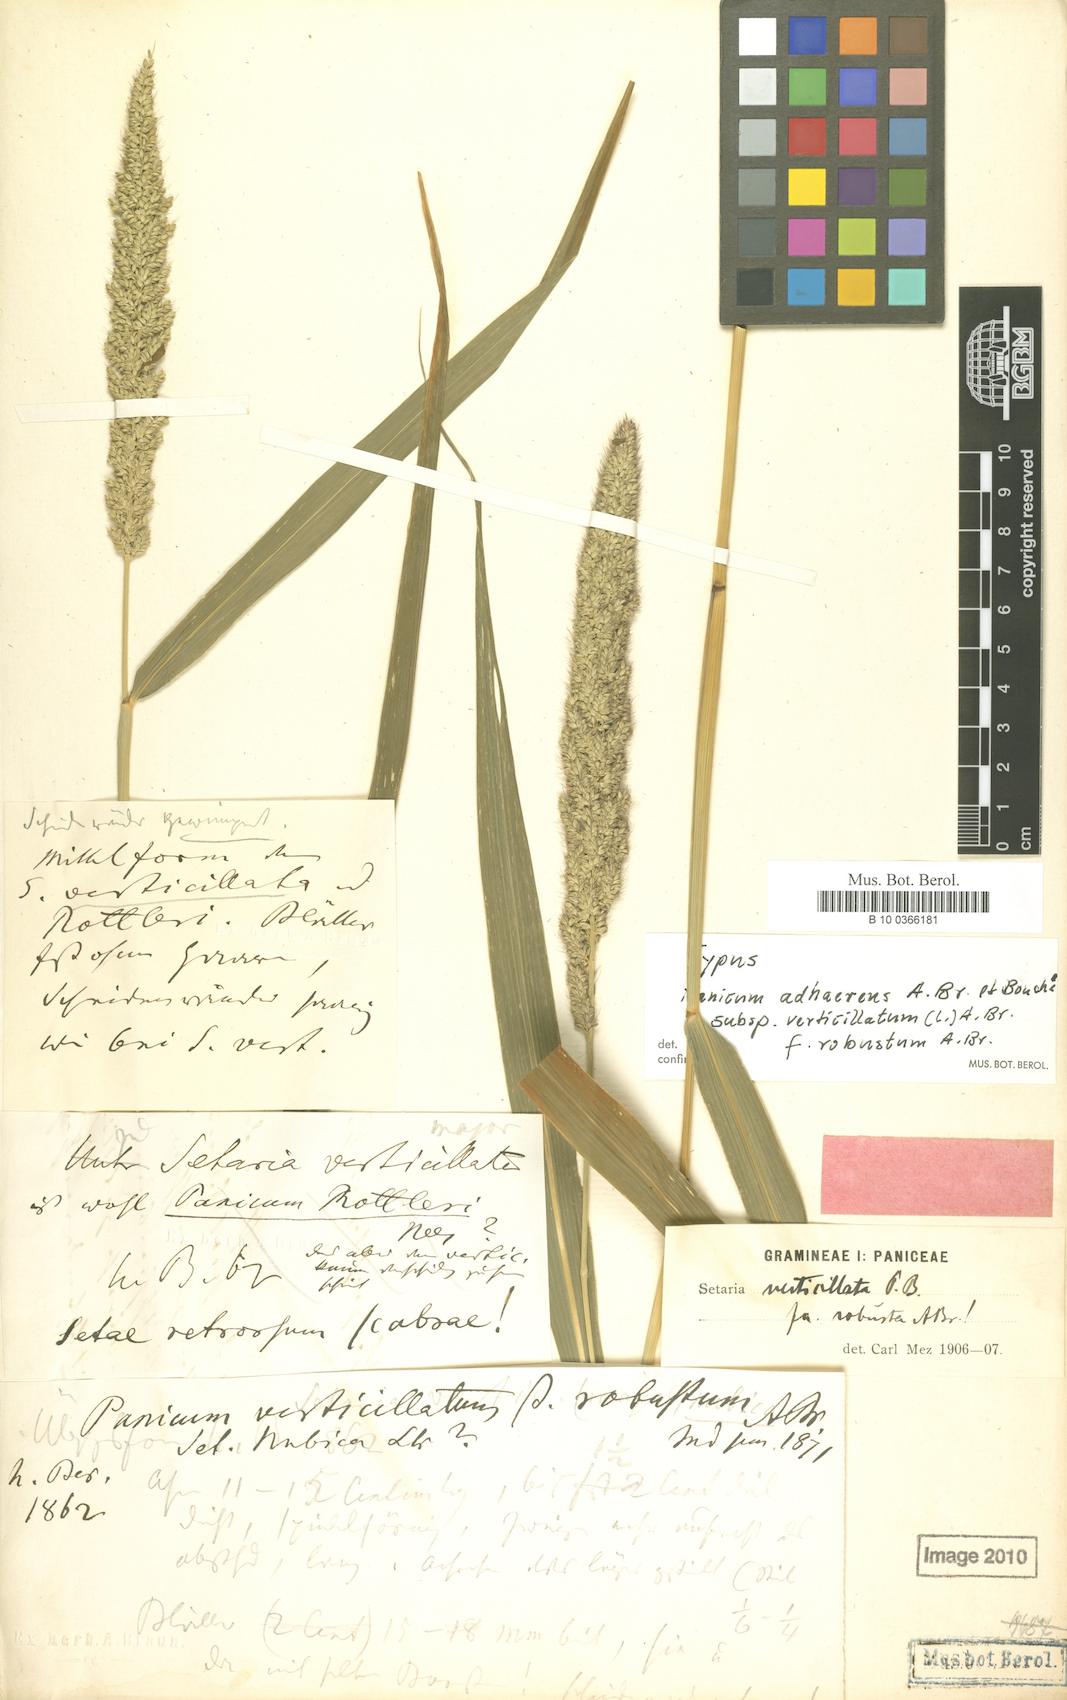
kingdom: Plantae
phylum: Tracheophyta
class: Liliopsida
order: Poales
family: Poaceae
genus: Setaria
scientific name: Setaria adhaerens
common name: Adherent bristle-grass
